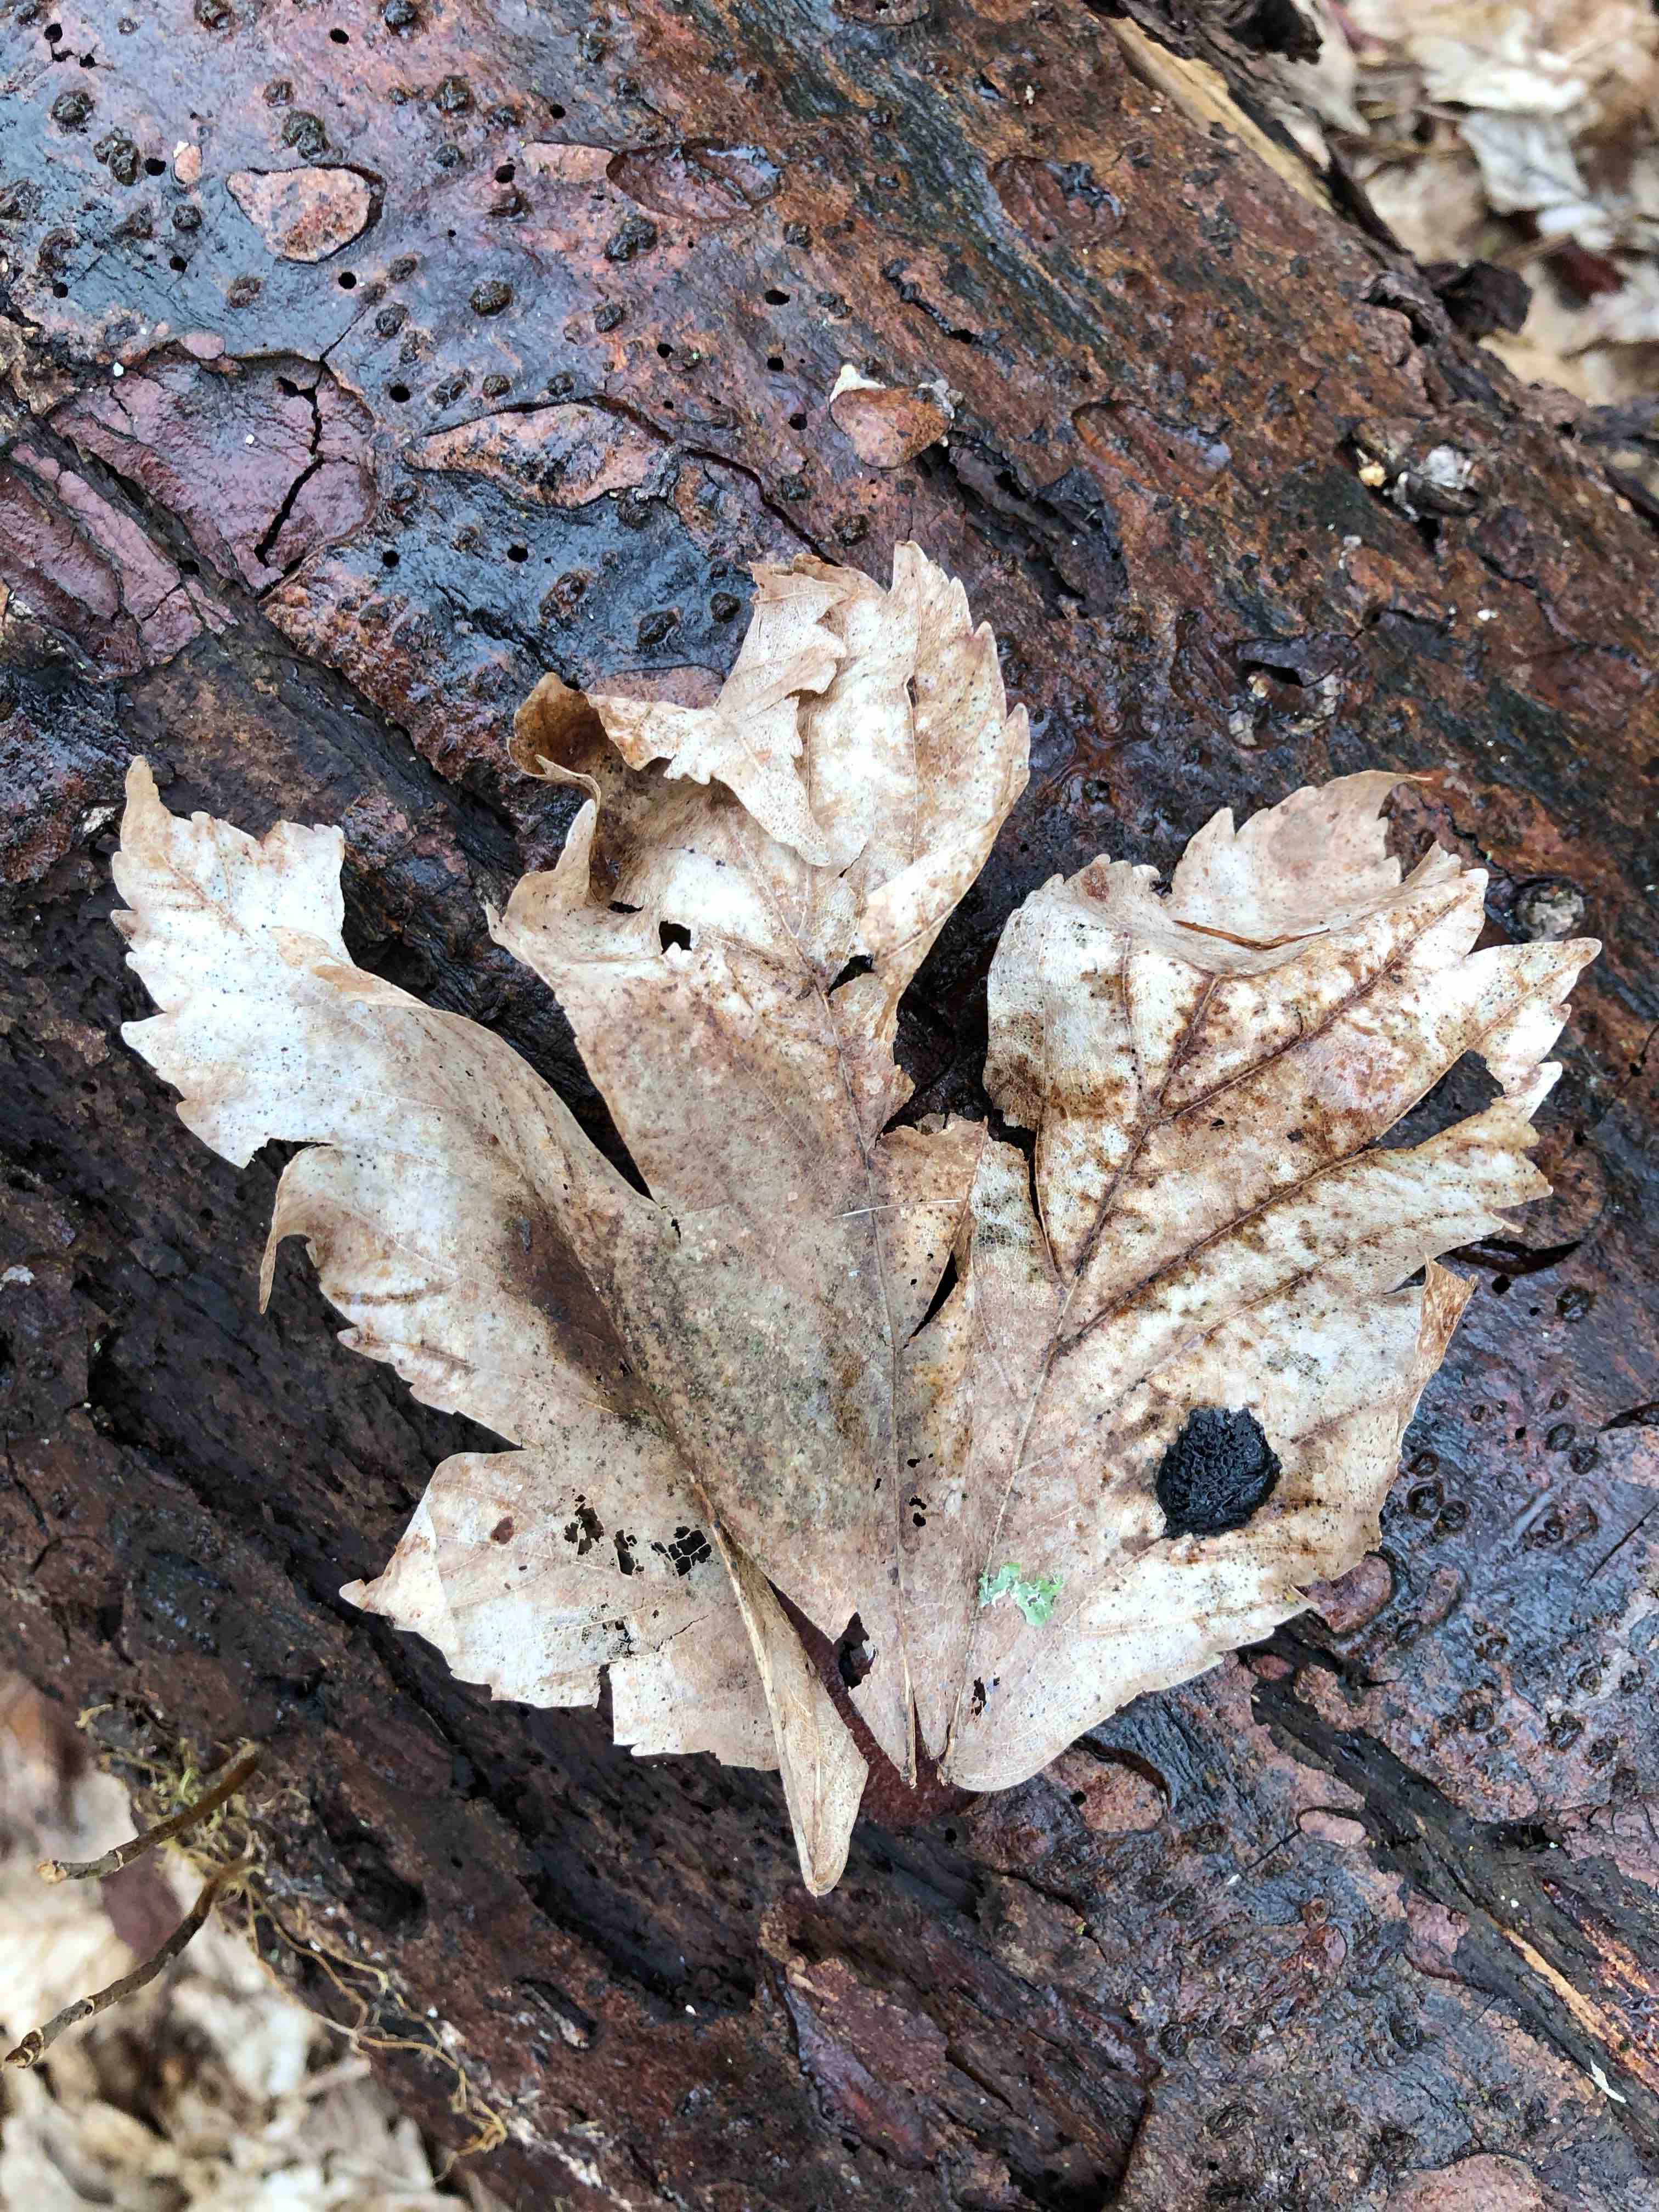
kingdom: Fungi
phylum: Ascomycota
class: Leotiomycetes
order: Rhytismatales
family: Rhytismataceae
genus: Rhytisma
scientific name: Rhytisma acerinum
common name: ahorn-rynkeplet
